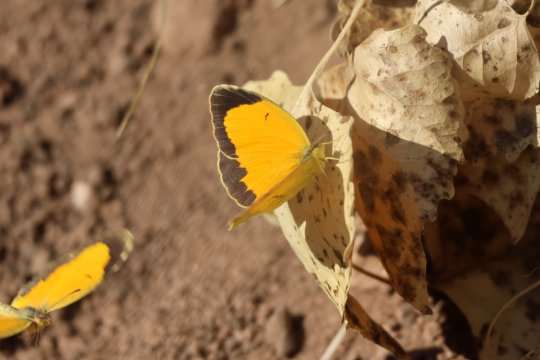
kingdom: Animalia
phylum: Arthropoda
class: Insecta
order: Lepidoptera
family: Pieridae
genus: Abaeis
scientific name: Abaeis nicippe
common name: Sleepy Orange
